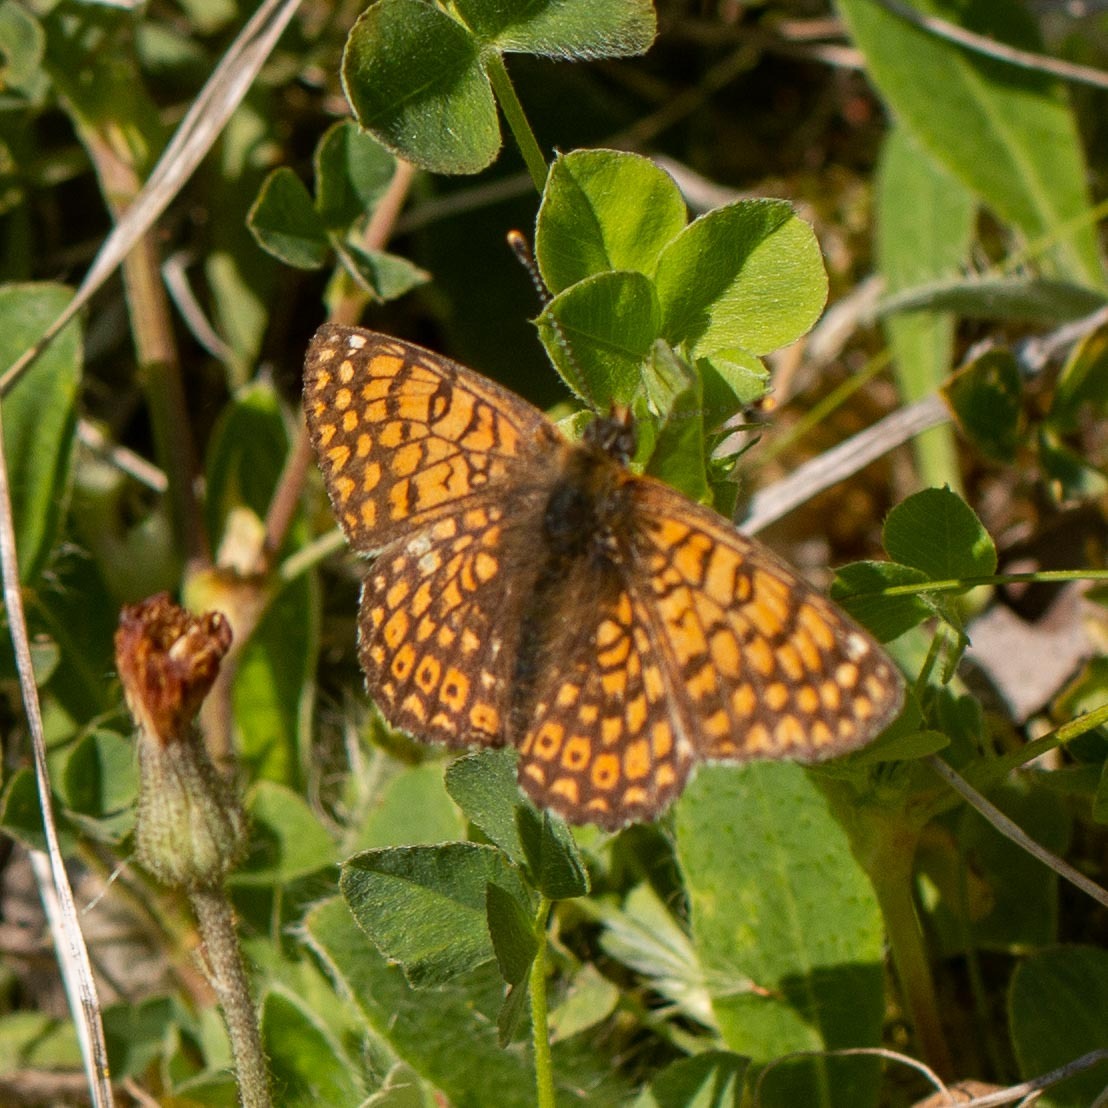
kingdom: Animalia
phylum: Arthropoda
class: Insecta
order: Lepidoptera
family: Nymphalidae
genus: Melitaea
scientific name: Melitaea cinxia
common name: Okkergul pletvinge
